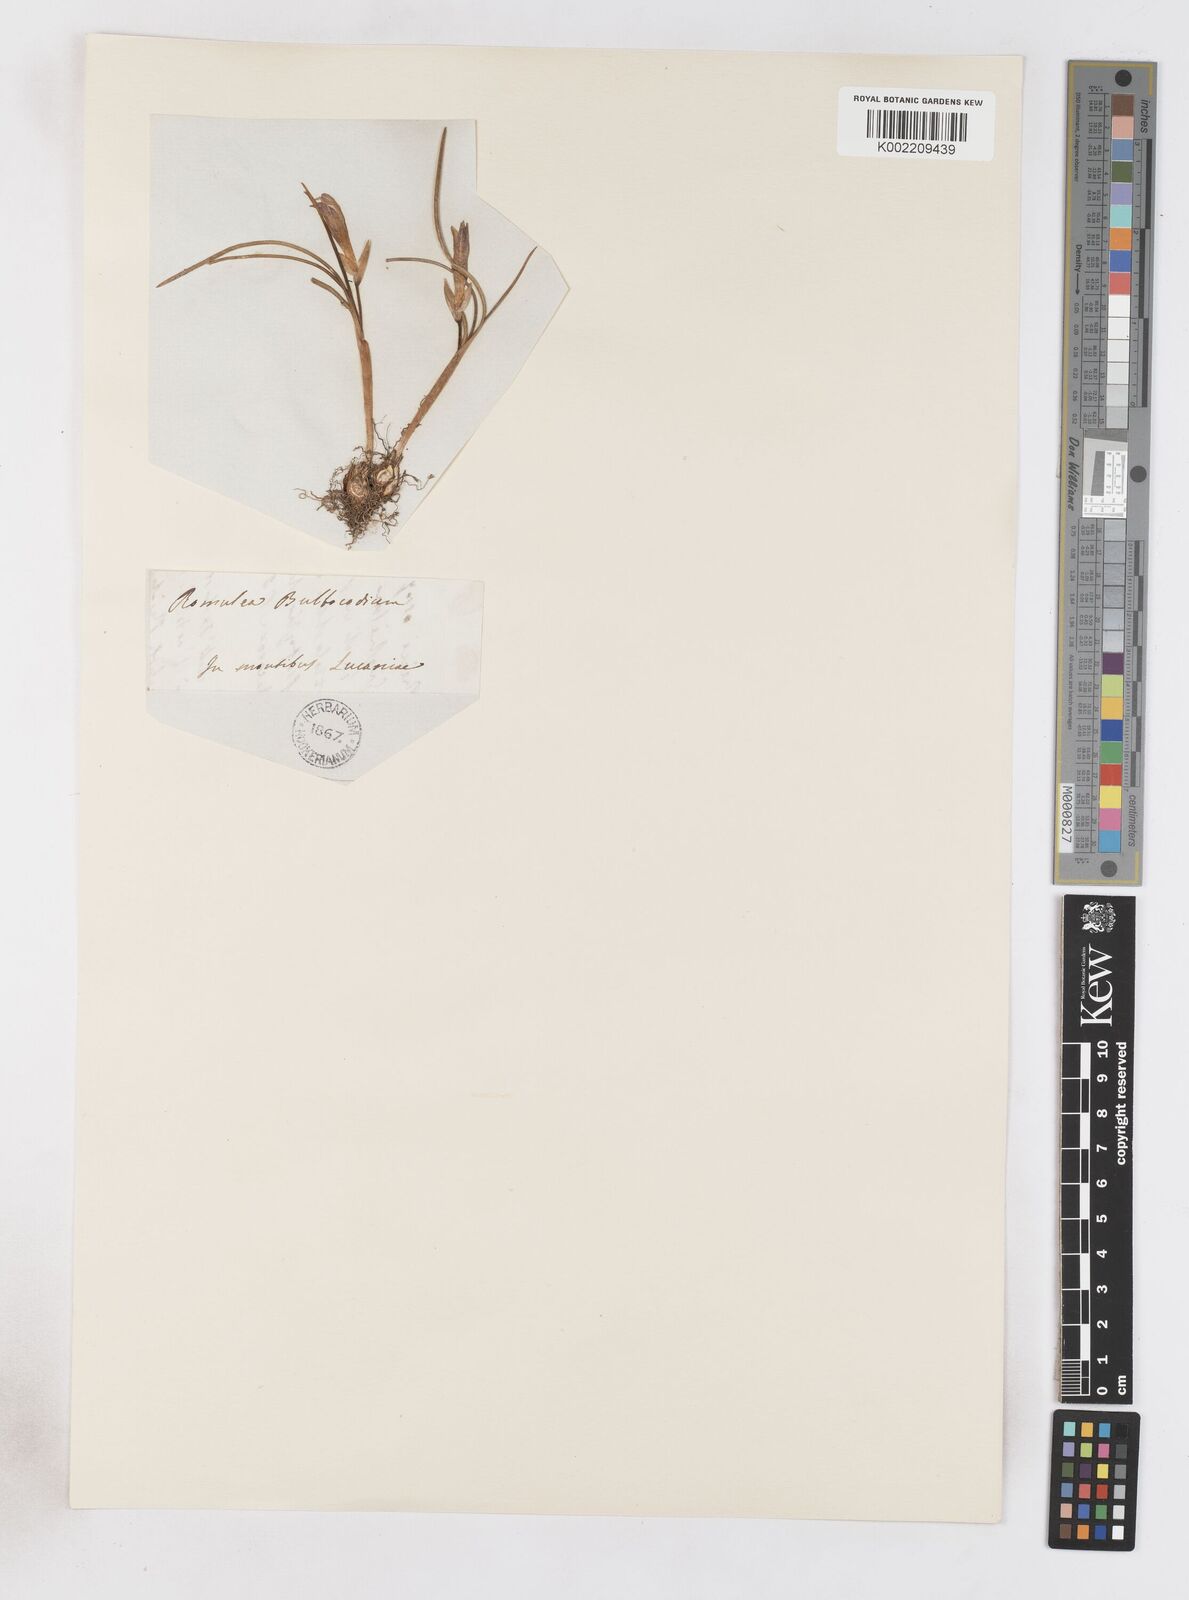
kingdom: Plantae
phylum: Tracheophyta
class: Liliopsida
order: Asparagales
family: Iridaceae
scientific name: Iridaceae
